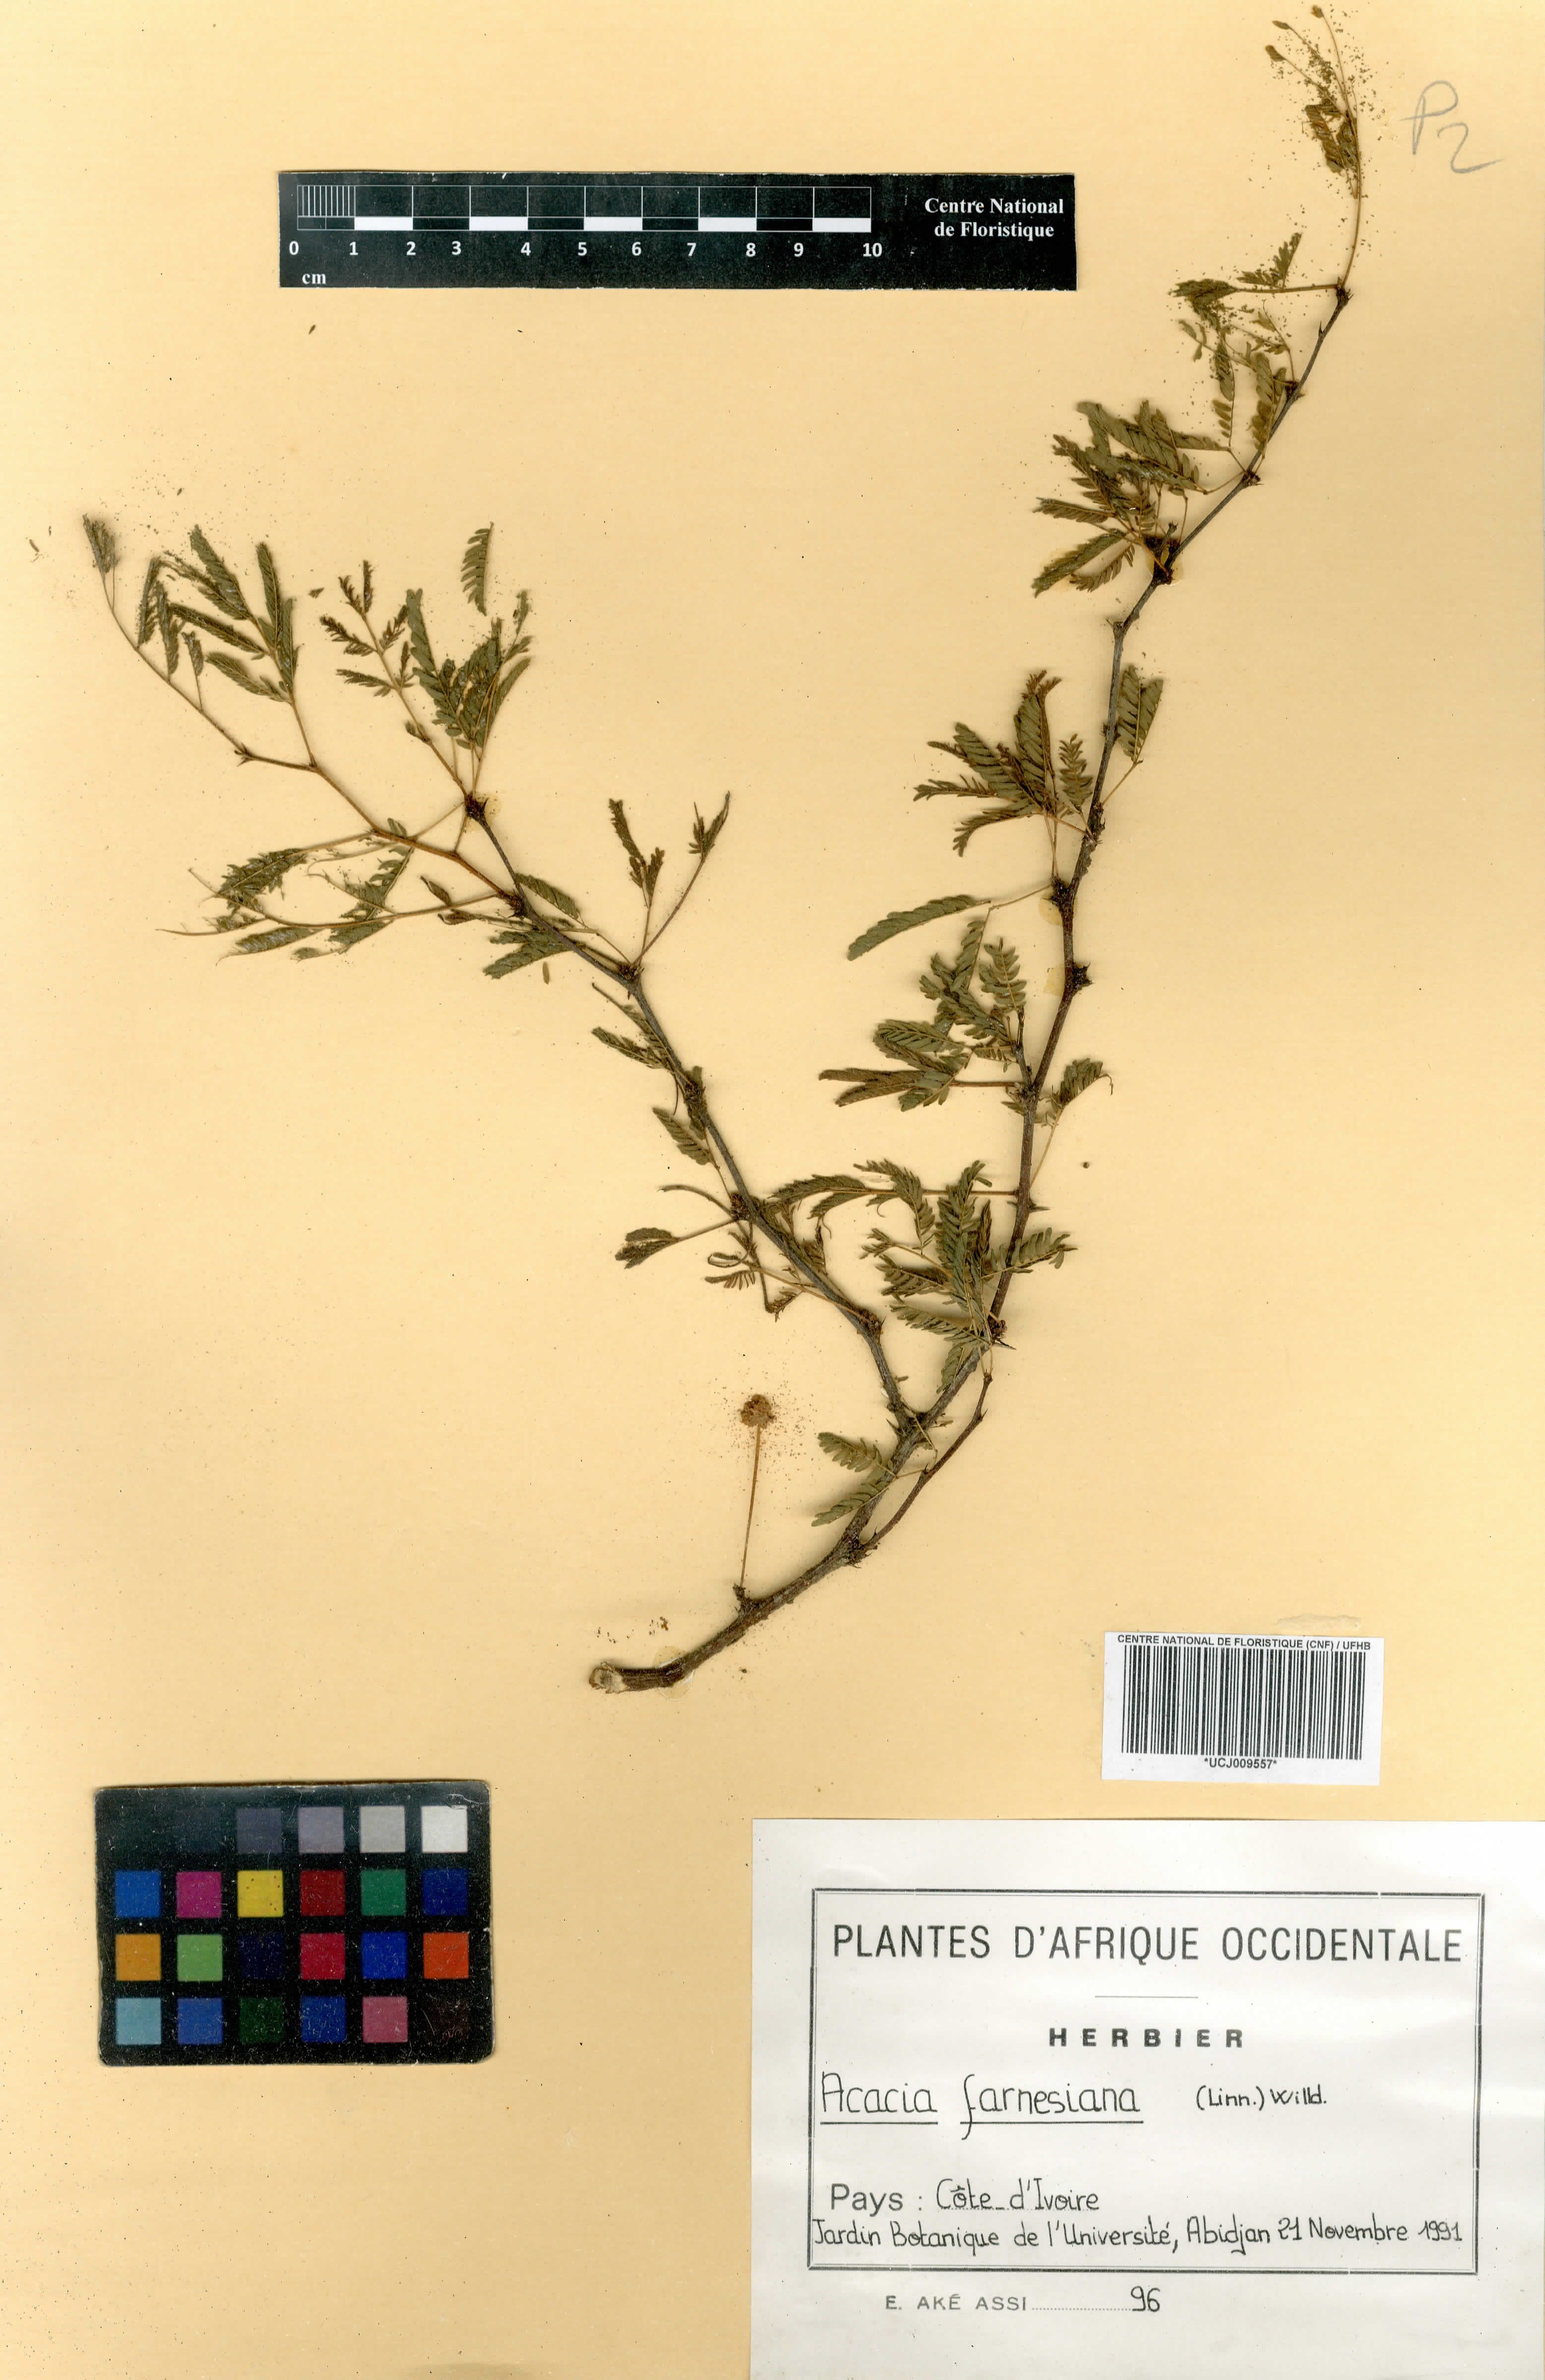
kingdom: Plantae
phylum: Tracheophyta
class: Magnoliopsida
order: Fabales
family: Fabaceae
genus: Vachellia
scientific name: Vachellia farnesiana
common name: Sweet acacia
